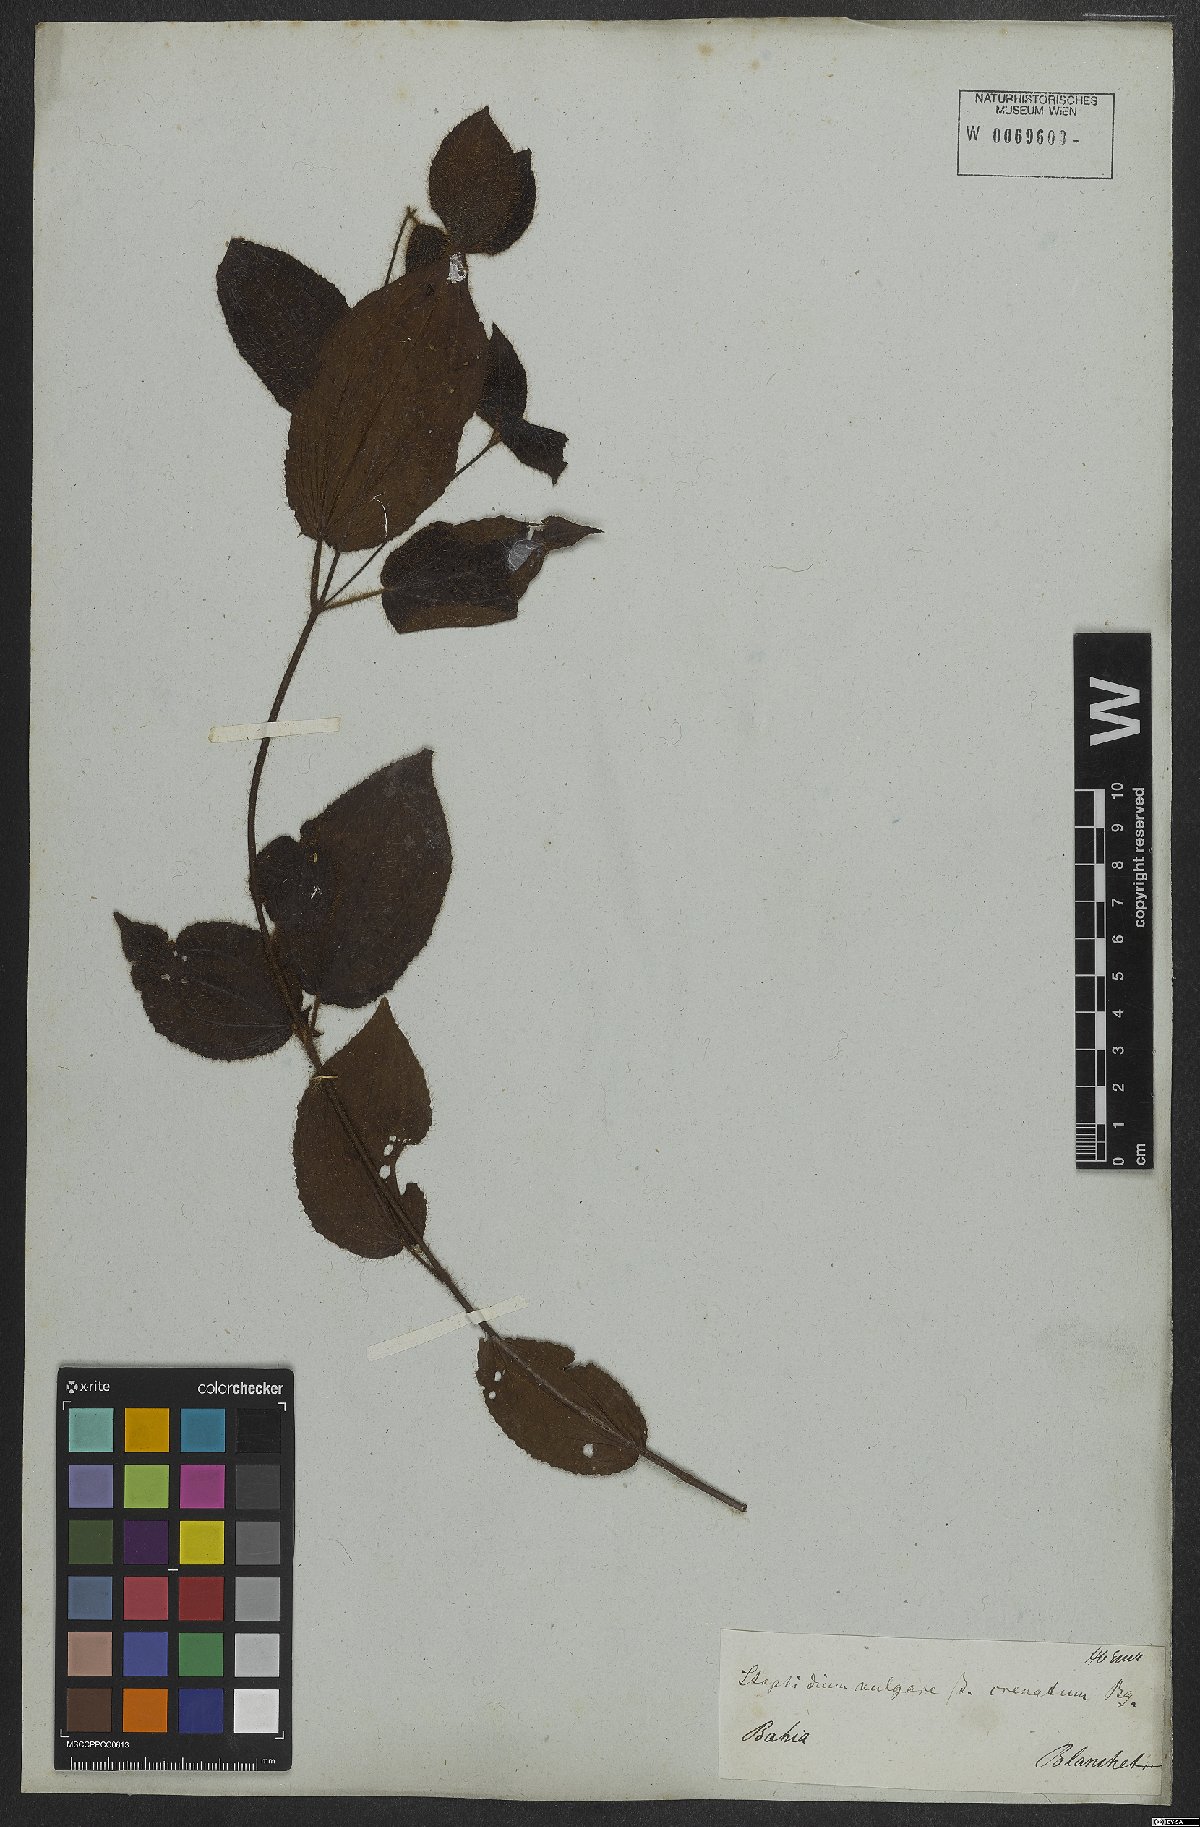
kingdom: Plantae
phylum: Tracheophyta
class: Magnoliopsida
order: Myrtales
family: Melastomataceae
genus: Miconia
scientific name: Miconia crenata
